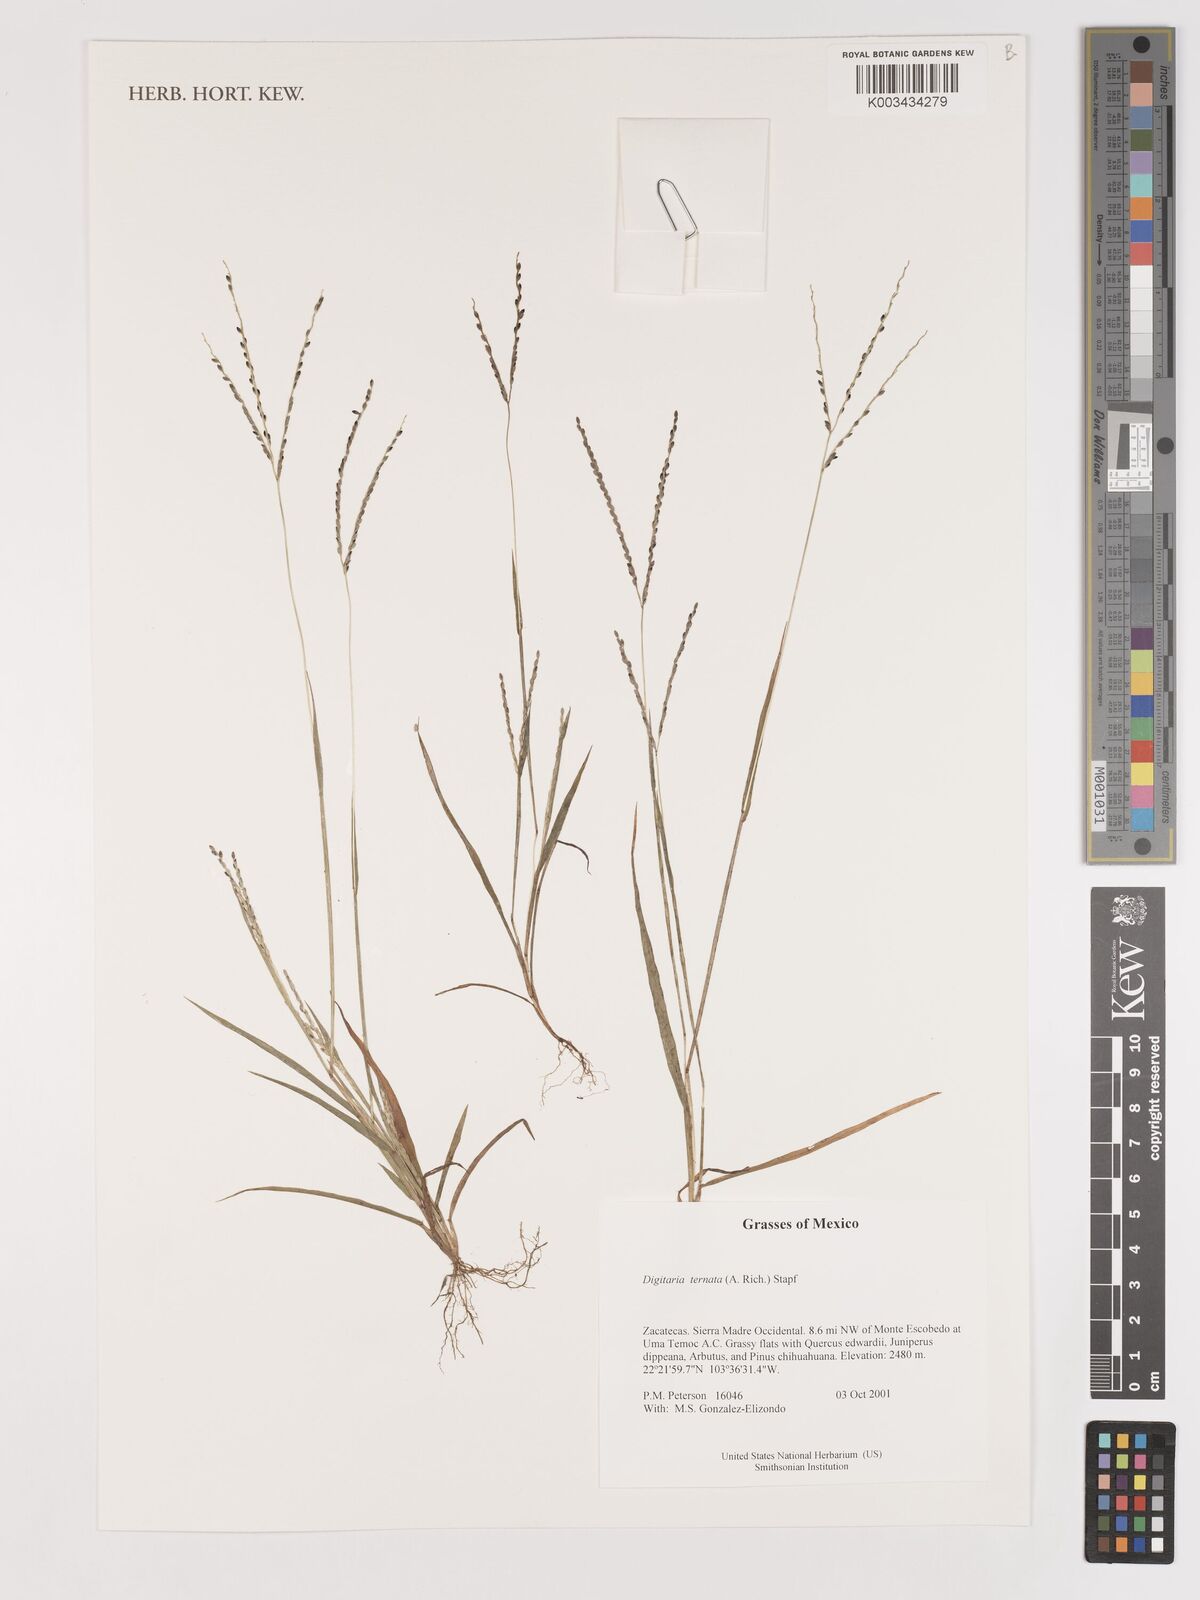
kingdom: Plantae
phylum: Tracheophyta
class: Liliopsida
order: Poales
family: Poaceae
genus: Digitaria
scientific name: Digitaria ternata
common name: Blackseed crabgrass
